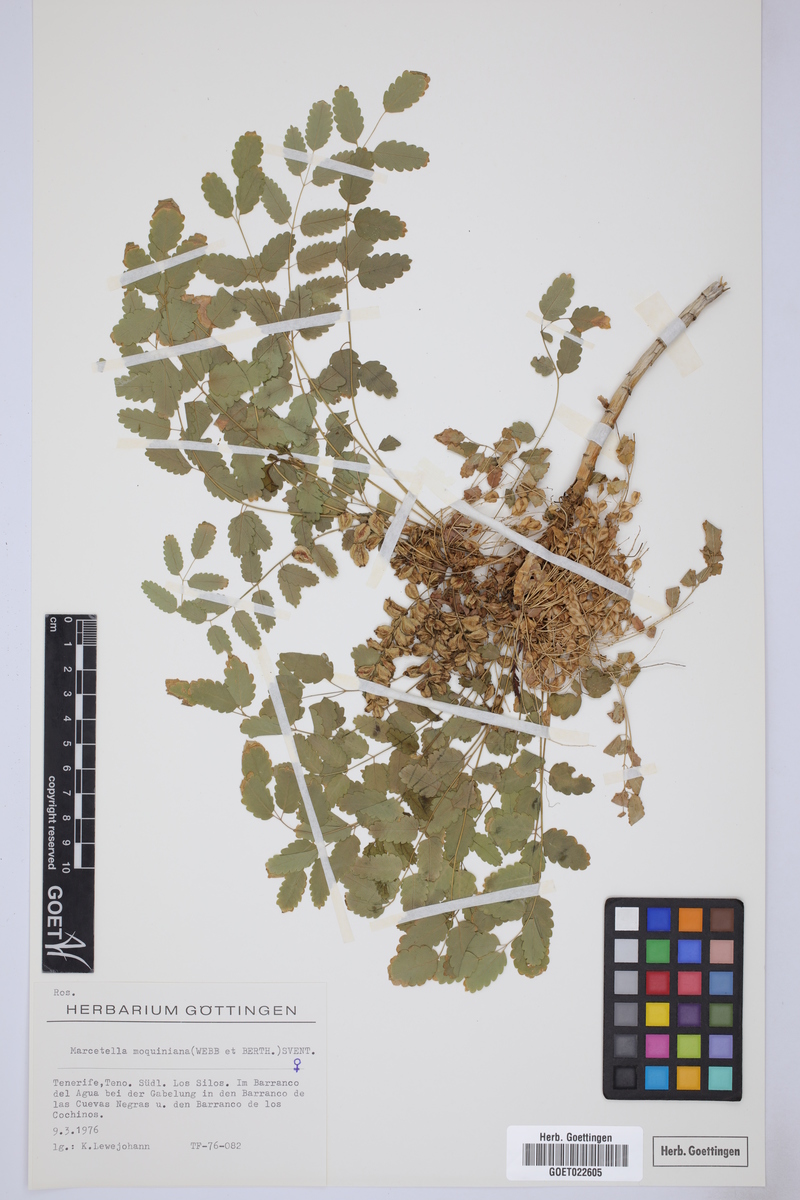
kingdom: Plantae
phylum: Tracheophyta
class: Magnoliopsida
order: Rosales
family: Rosaceae
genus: Marcetella
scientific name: Marcetella moquiniana
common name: Burnet tree
